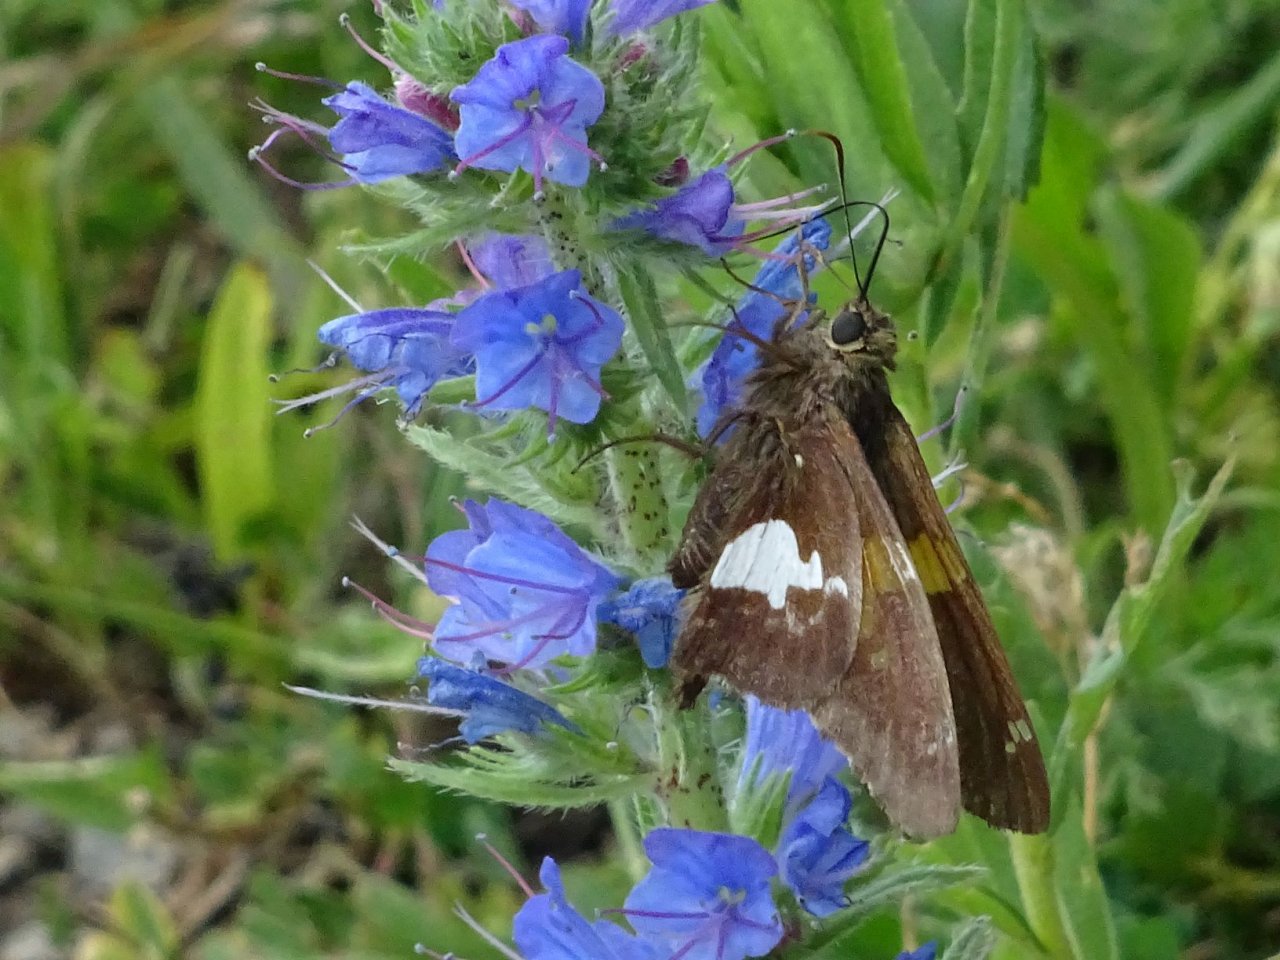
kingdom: Animalia
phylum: Arthropoda
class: Insecta
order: Lepidoptera
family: Hesperiidae
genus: Epargyreus
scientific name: Epargyreus clarus
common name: Silver-spotted Skipper
